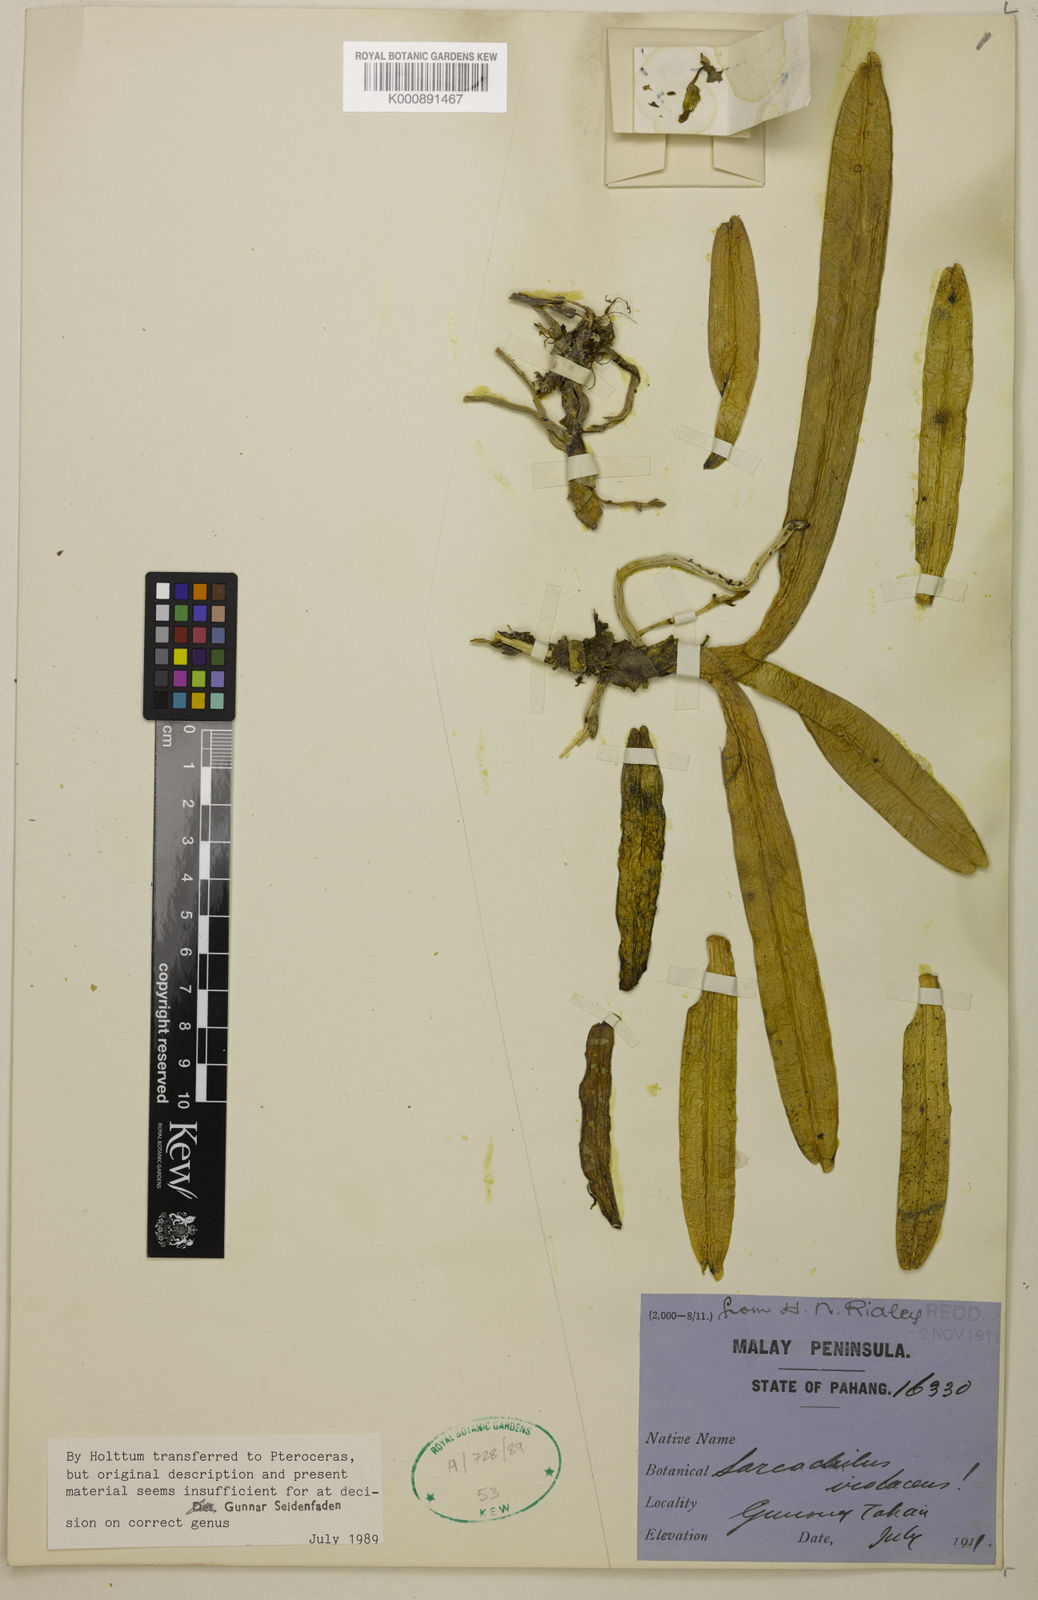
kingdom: Plantae
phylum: Tracheophyta
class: Liliopsida
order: Asparagales
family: Orchidaceae
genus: Pteroceras
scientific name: Pteroceras violaceum
